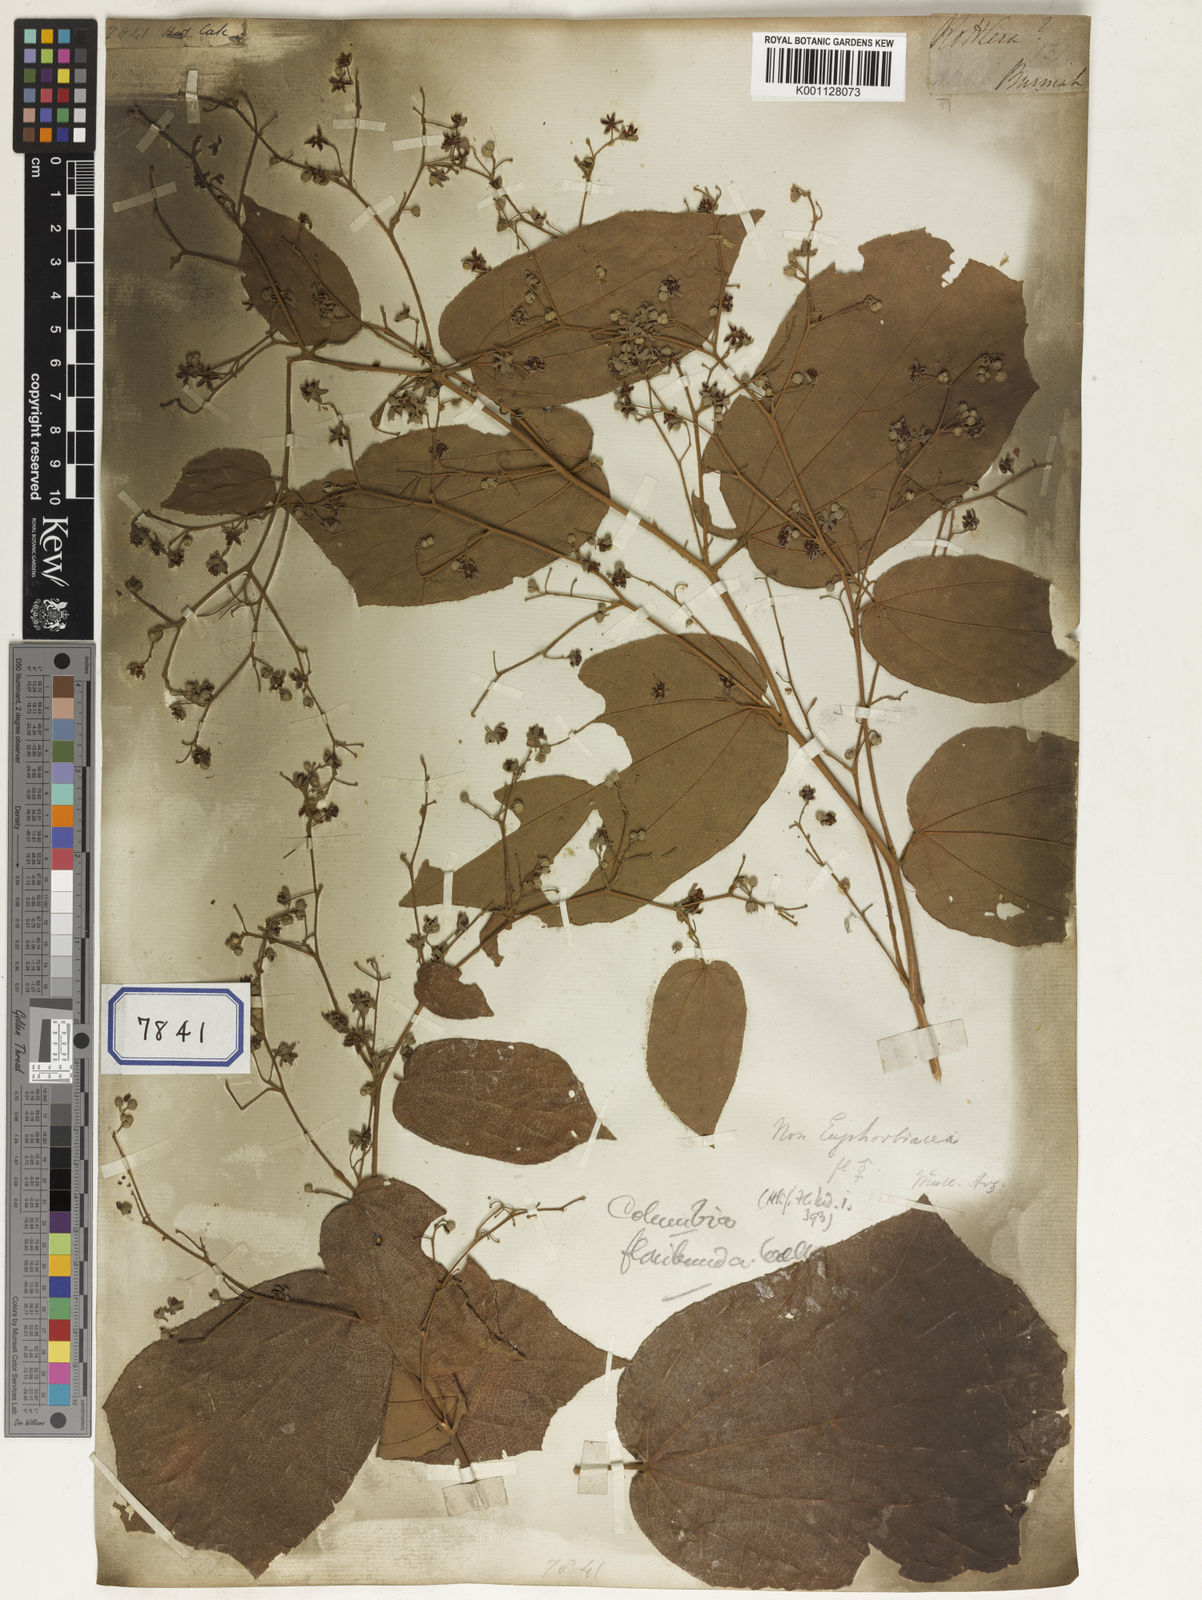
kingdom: Plantae
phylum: Tracheophyta
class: Magnoliopsida
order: Malpighiales
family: Euphorbiaceae
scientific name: Euphorbiaceae
